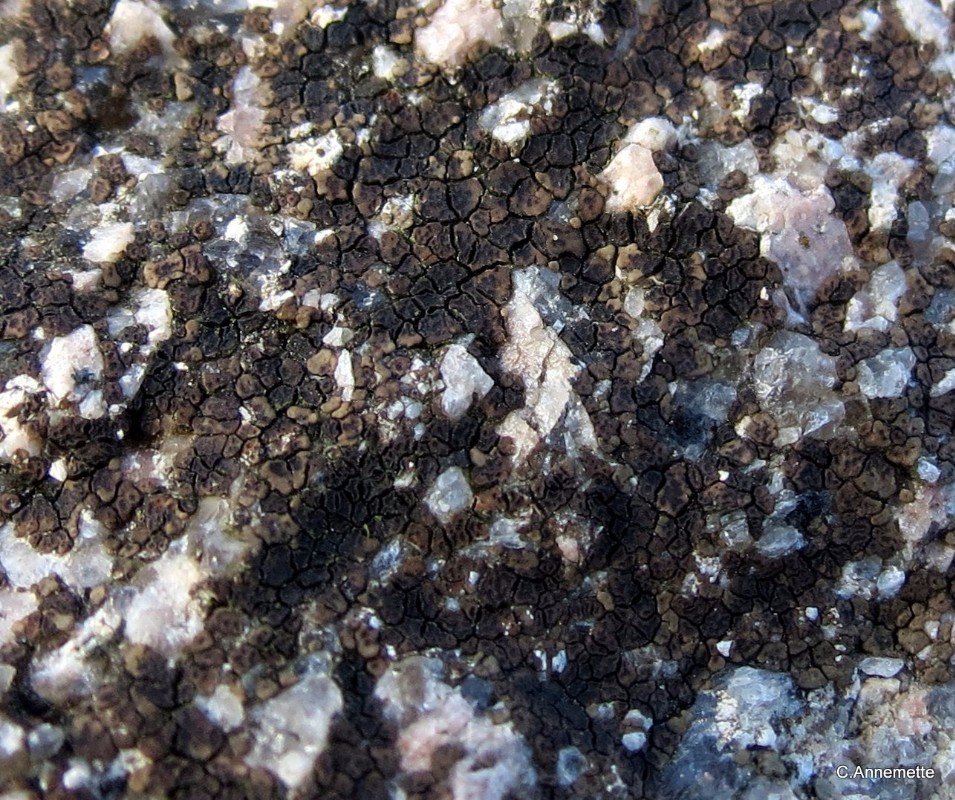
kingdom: Fungi
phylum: Ascomycota
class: Lecanoromycetes
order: Acarosporales
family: Acarosporaceae
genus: Acarospora
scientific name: Acarospora fuscata
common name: brun småsporelav
